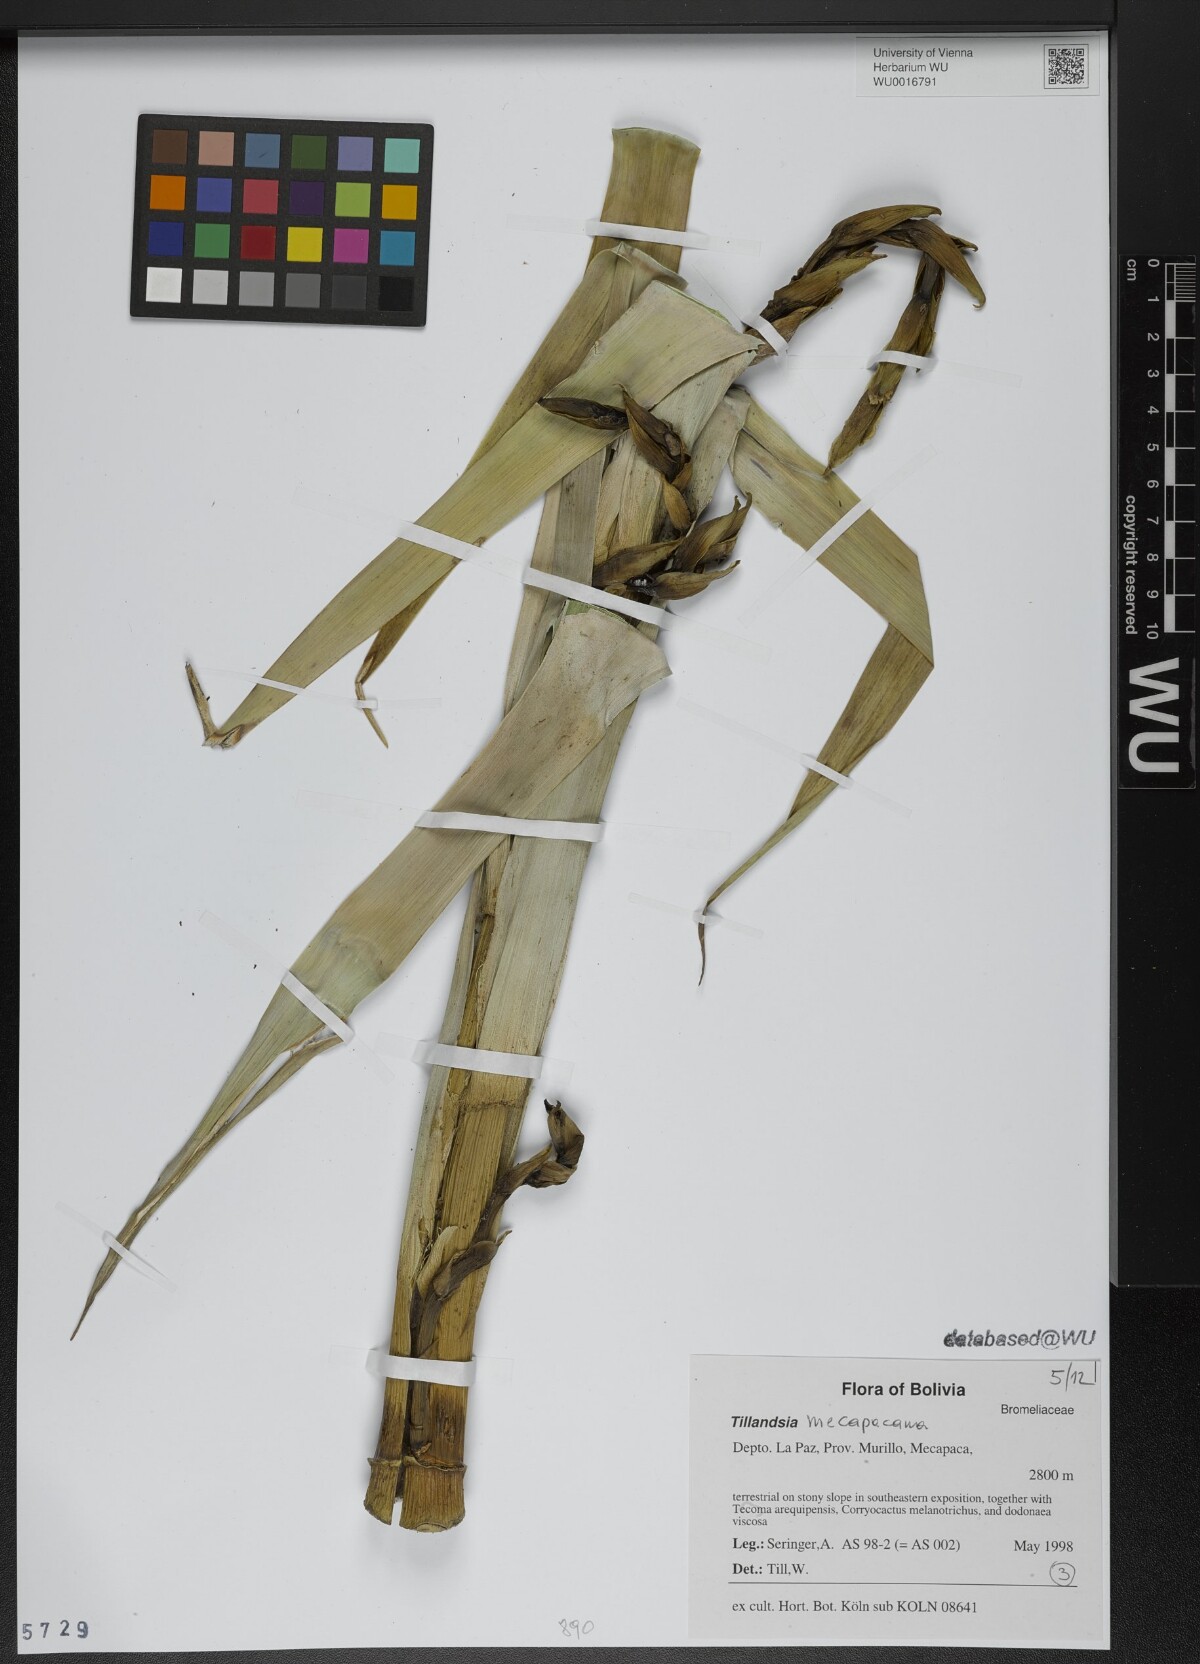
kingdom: Plantae
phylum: Tracheophyta
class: Liliopsida
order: Poales
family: Bromeliaceae
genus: Tillandsia
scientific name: Tillandsia
